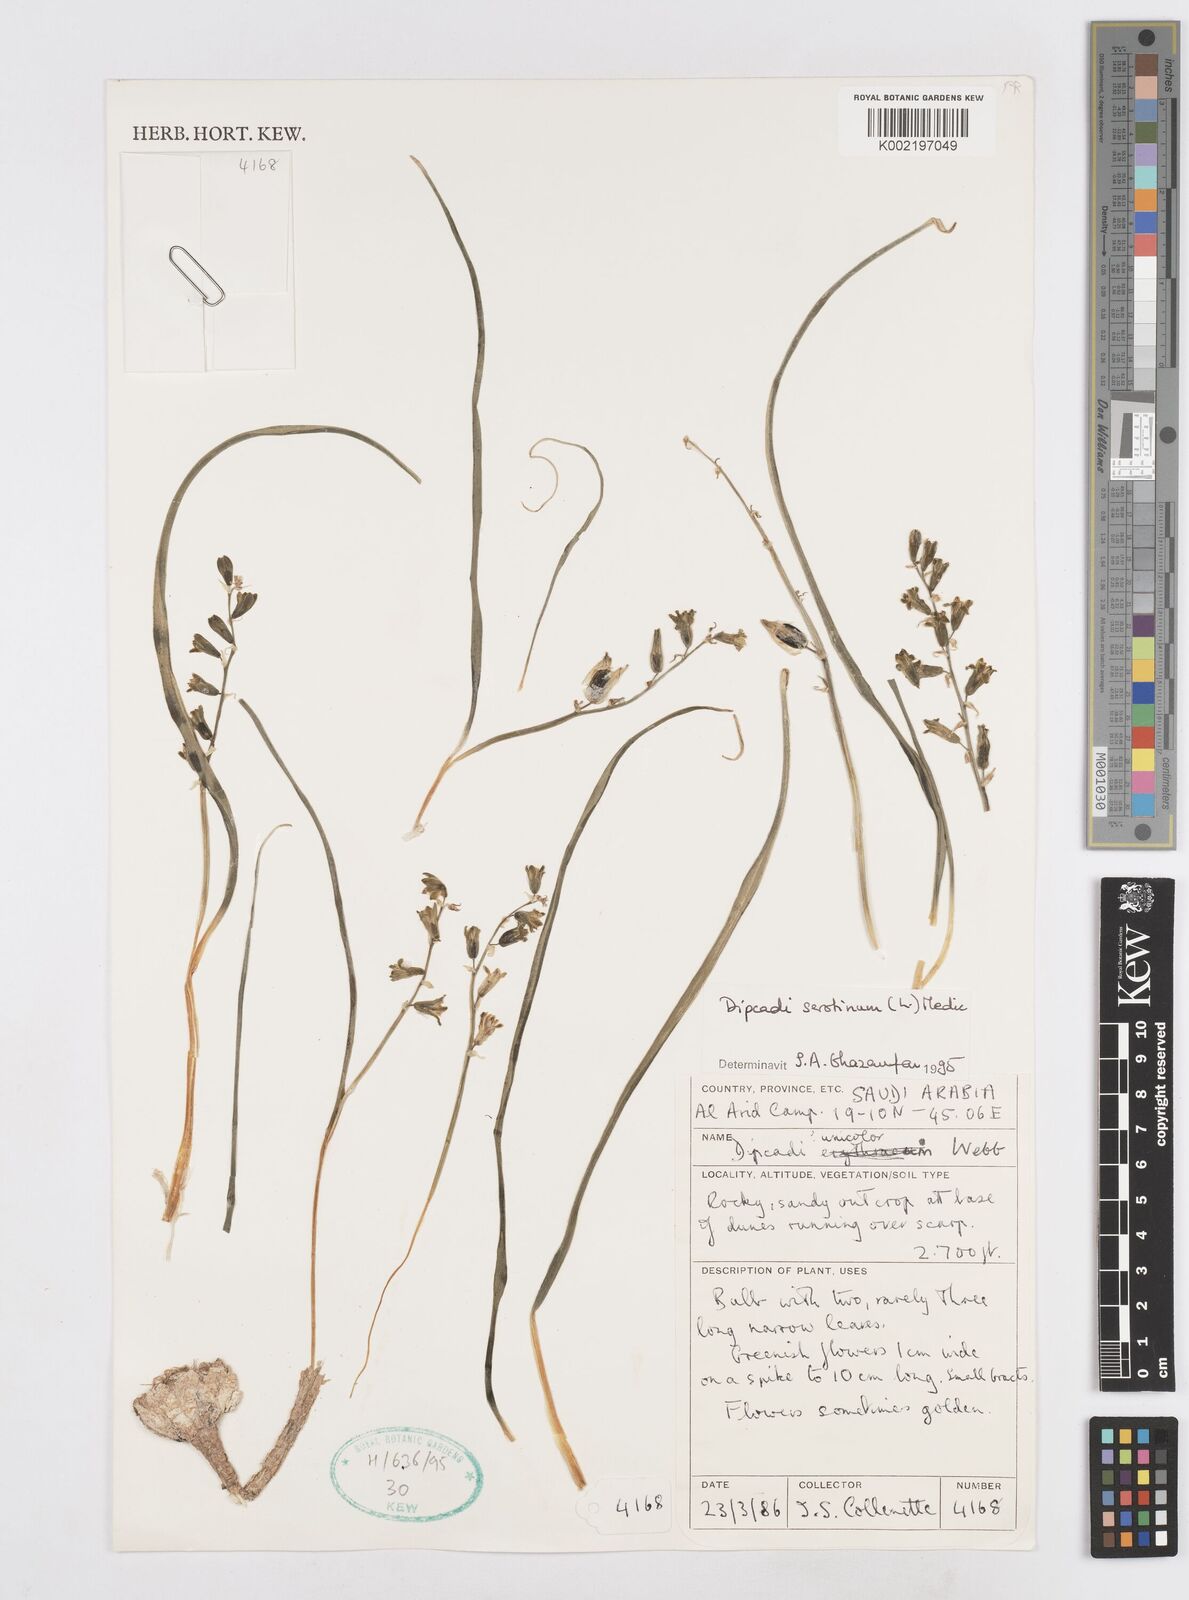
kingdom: Plantae
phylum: Tracheophyta
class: Liliopsida
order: Asparagales
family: Asparagaceae
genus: Dipcadi
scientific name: Dipcadi serotinum
